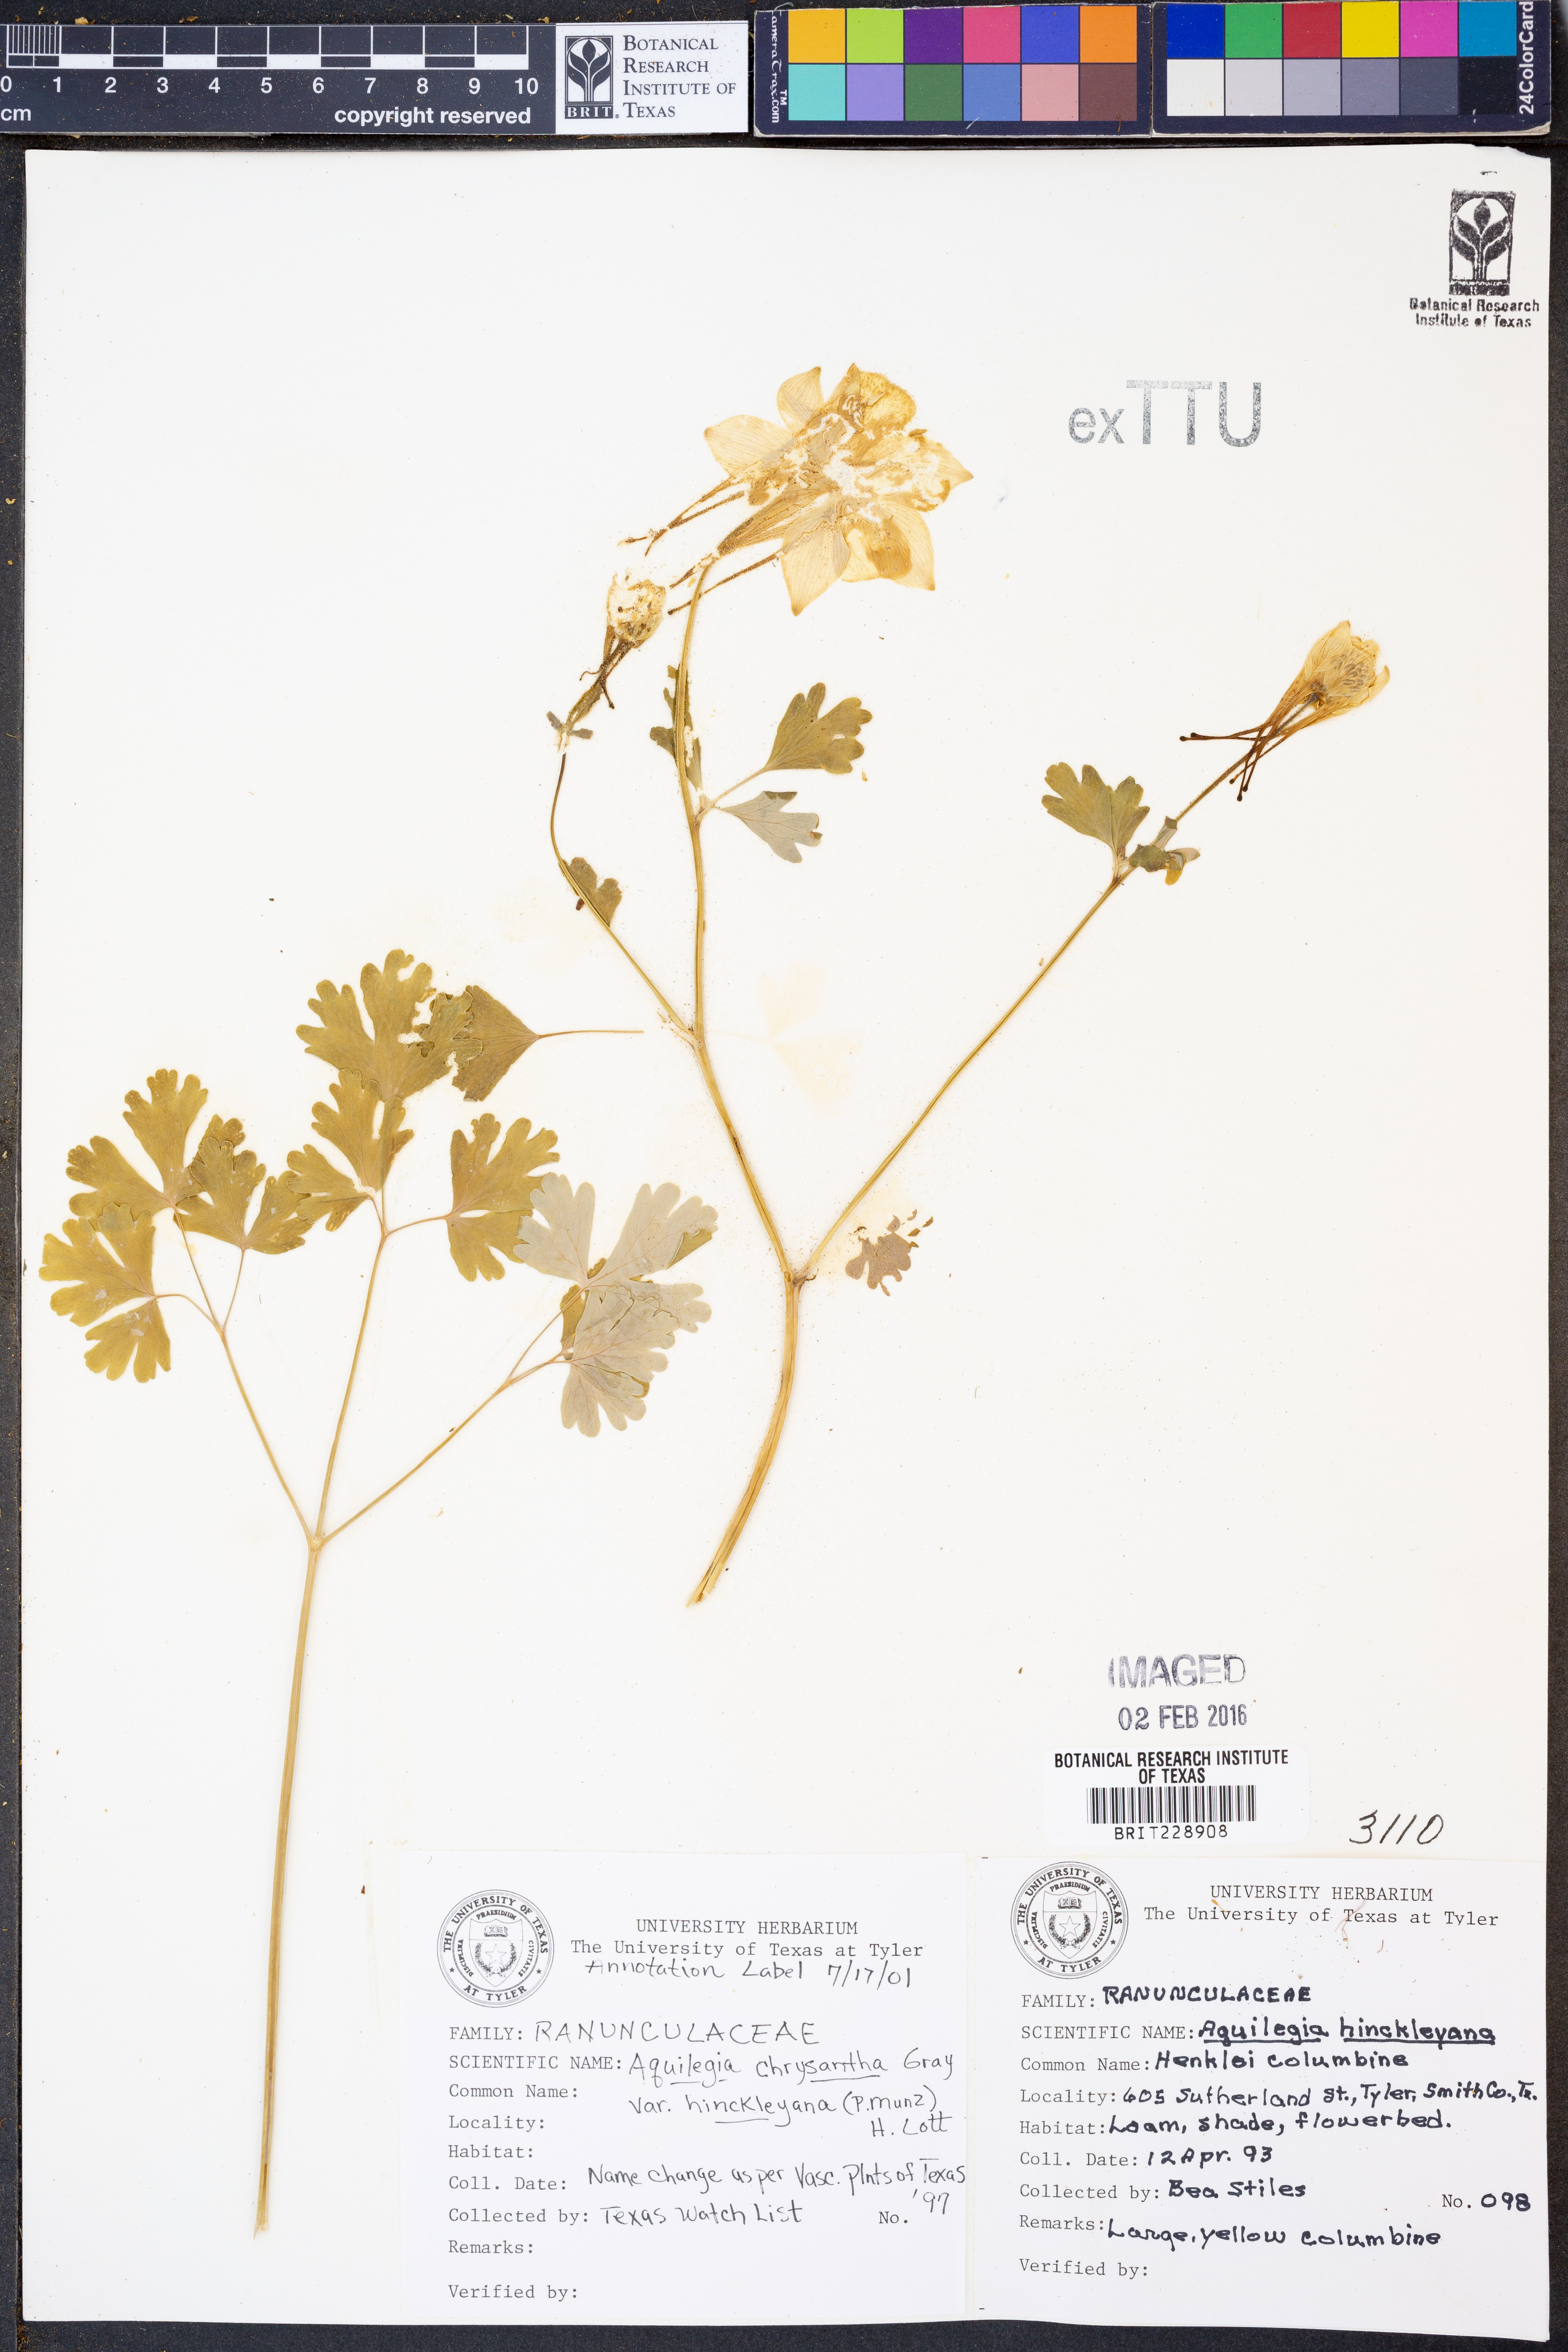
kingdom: Plantae
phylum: Tracheophyta
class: Magnoliopsida
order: Ranunculales
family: Ranunculaceae
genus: Aquilegia
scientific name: Aquilegia chrysantha
